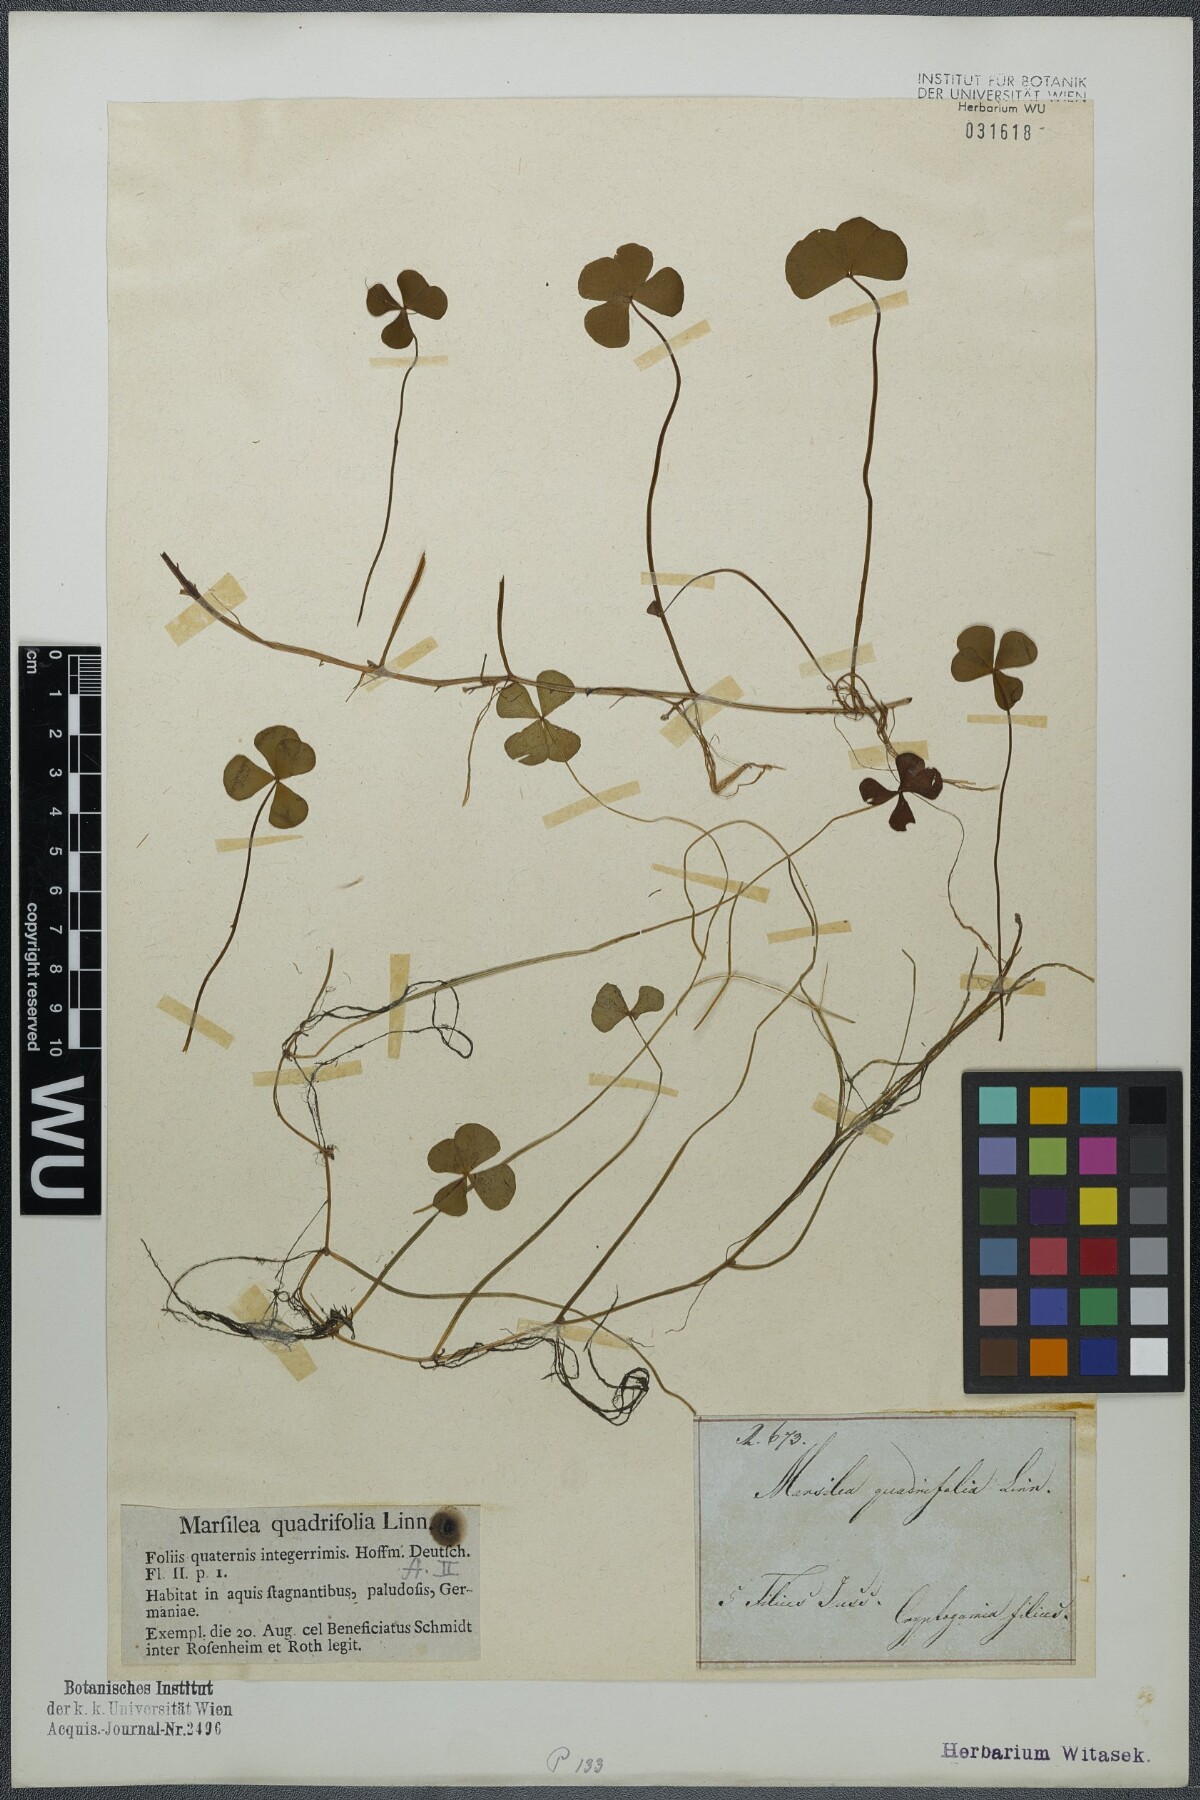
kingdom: Plantae
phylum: Tracheophyta
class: Polypodiopsida
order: Salviniales
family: Marsileaceae
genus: Marsilea
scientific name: Marsilea quadrifolia
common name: Water shamrock
